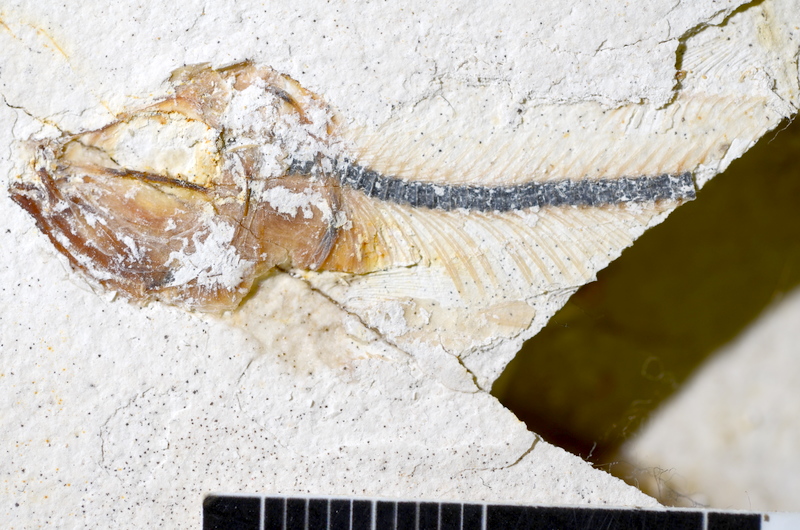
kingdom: Animalia
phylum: Chordata
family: Ascalaboidae
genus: Ebertichthys
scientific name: Ebertichthys ettlingensis
